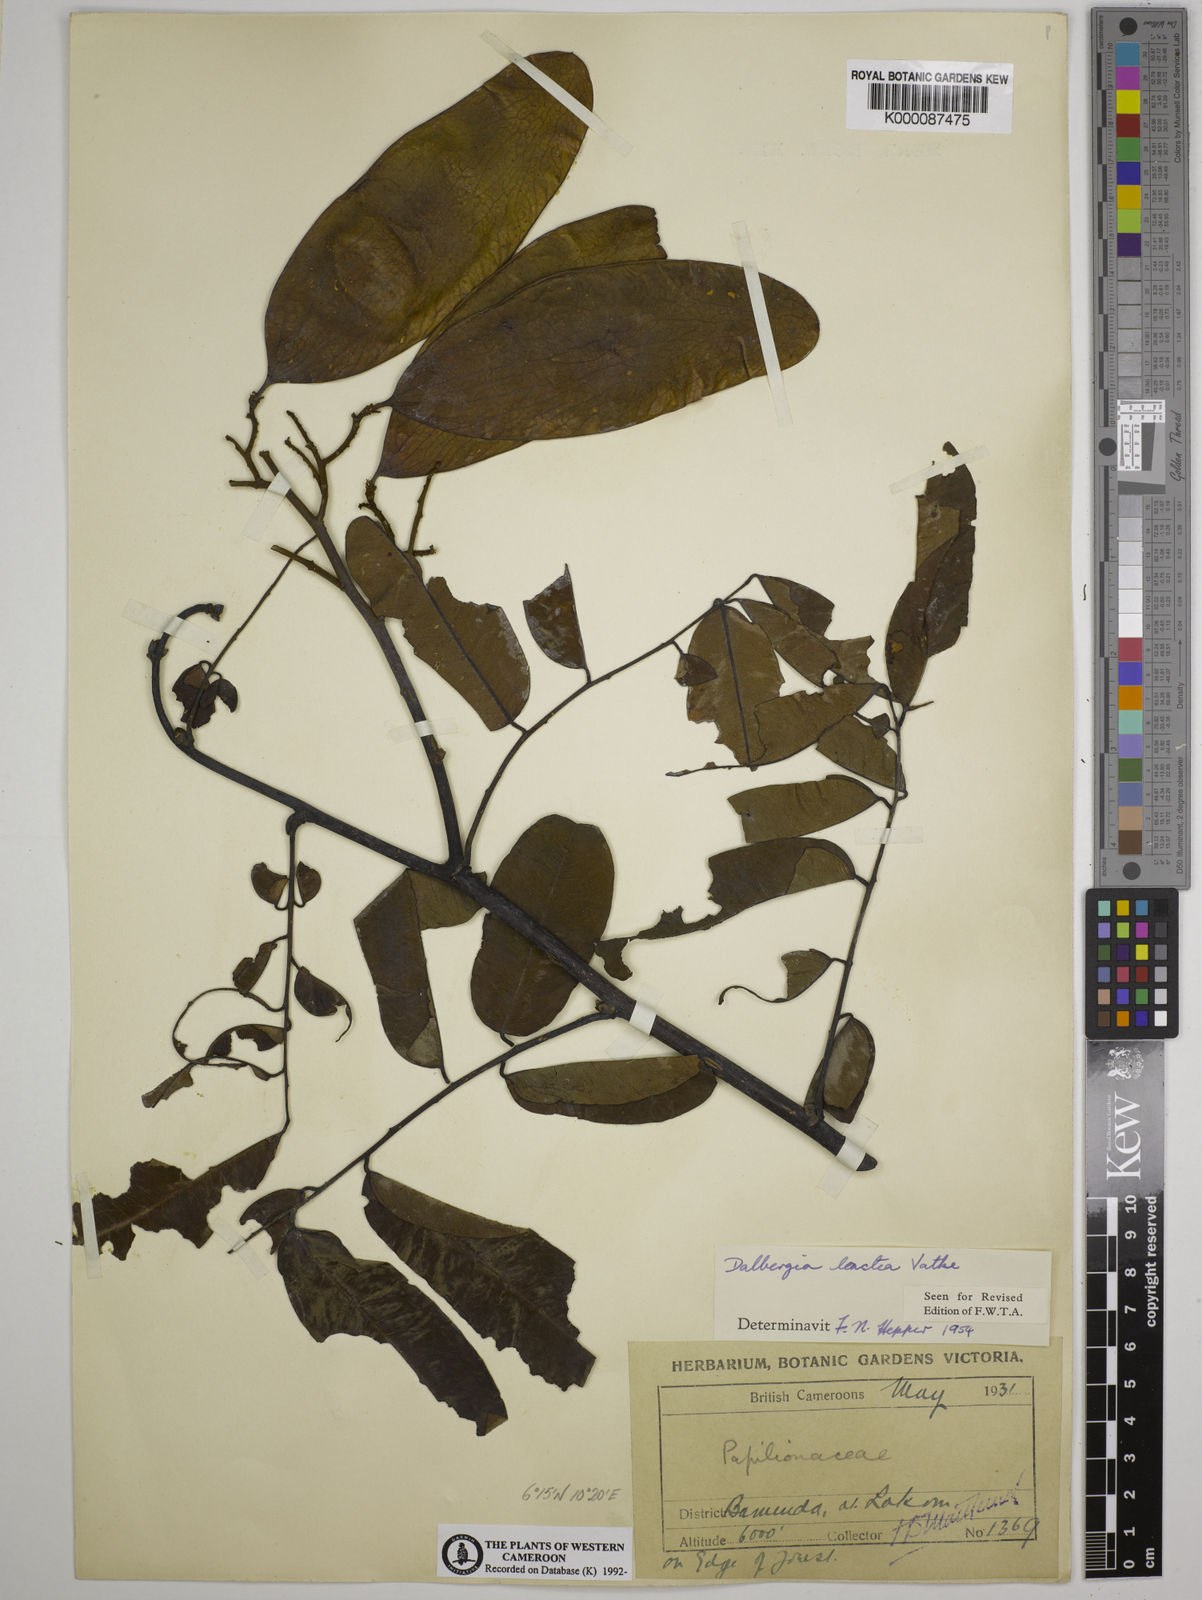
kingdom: Plantae
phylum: Tracheophyta
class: Magnoliopsida
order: Fabales
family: Fabaceae
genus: Dalbergia
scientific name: Dalbergia lactea
